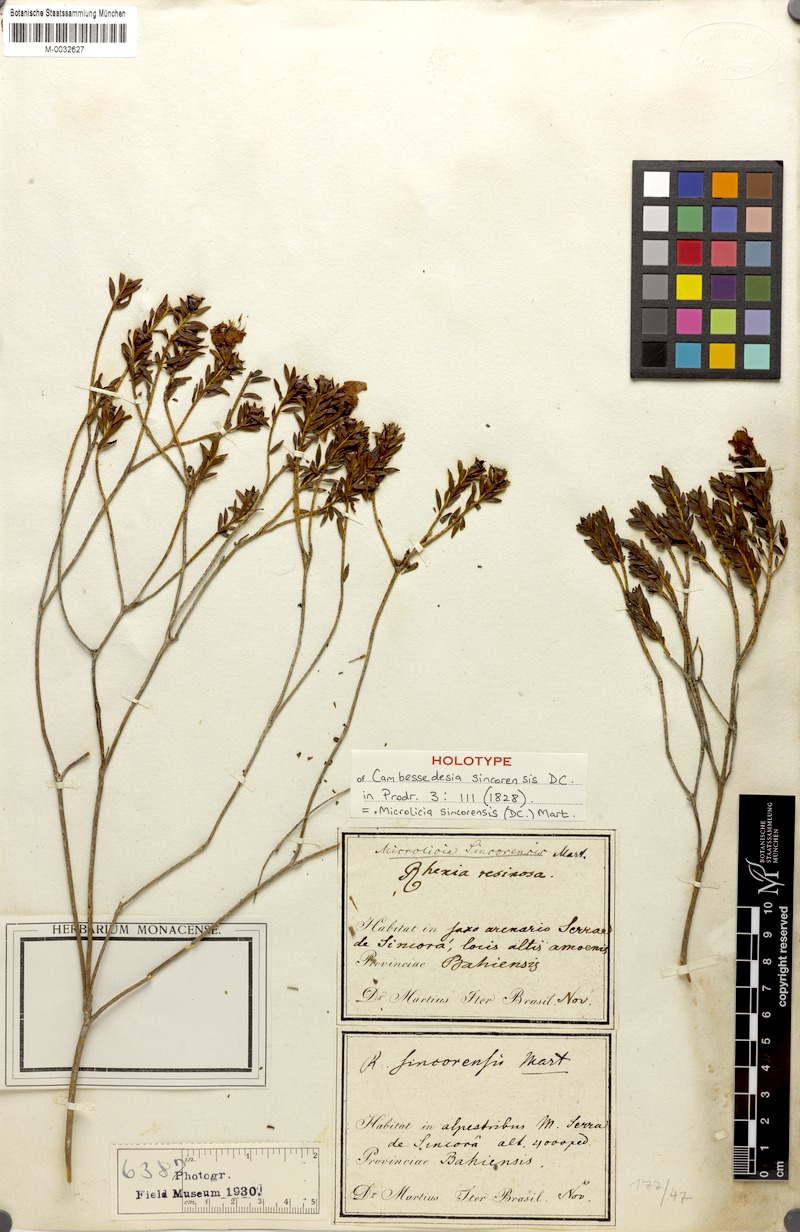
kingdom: Plantae
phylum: Tracheophyta
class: Magnoliopsida
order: Myrtales
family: Melastomataceae
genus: Microlicia
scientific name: Microlicia sincorensis
